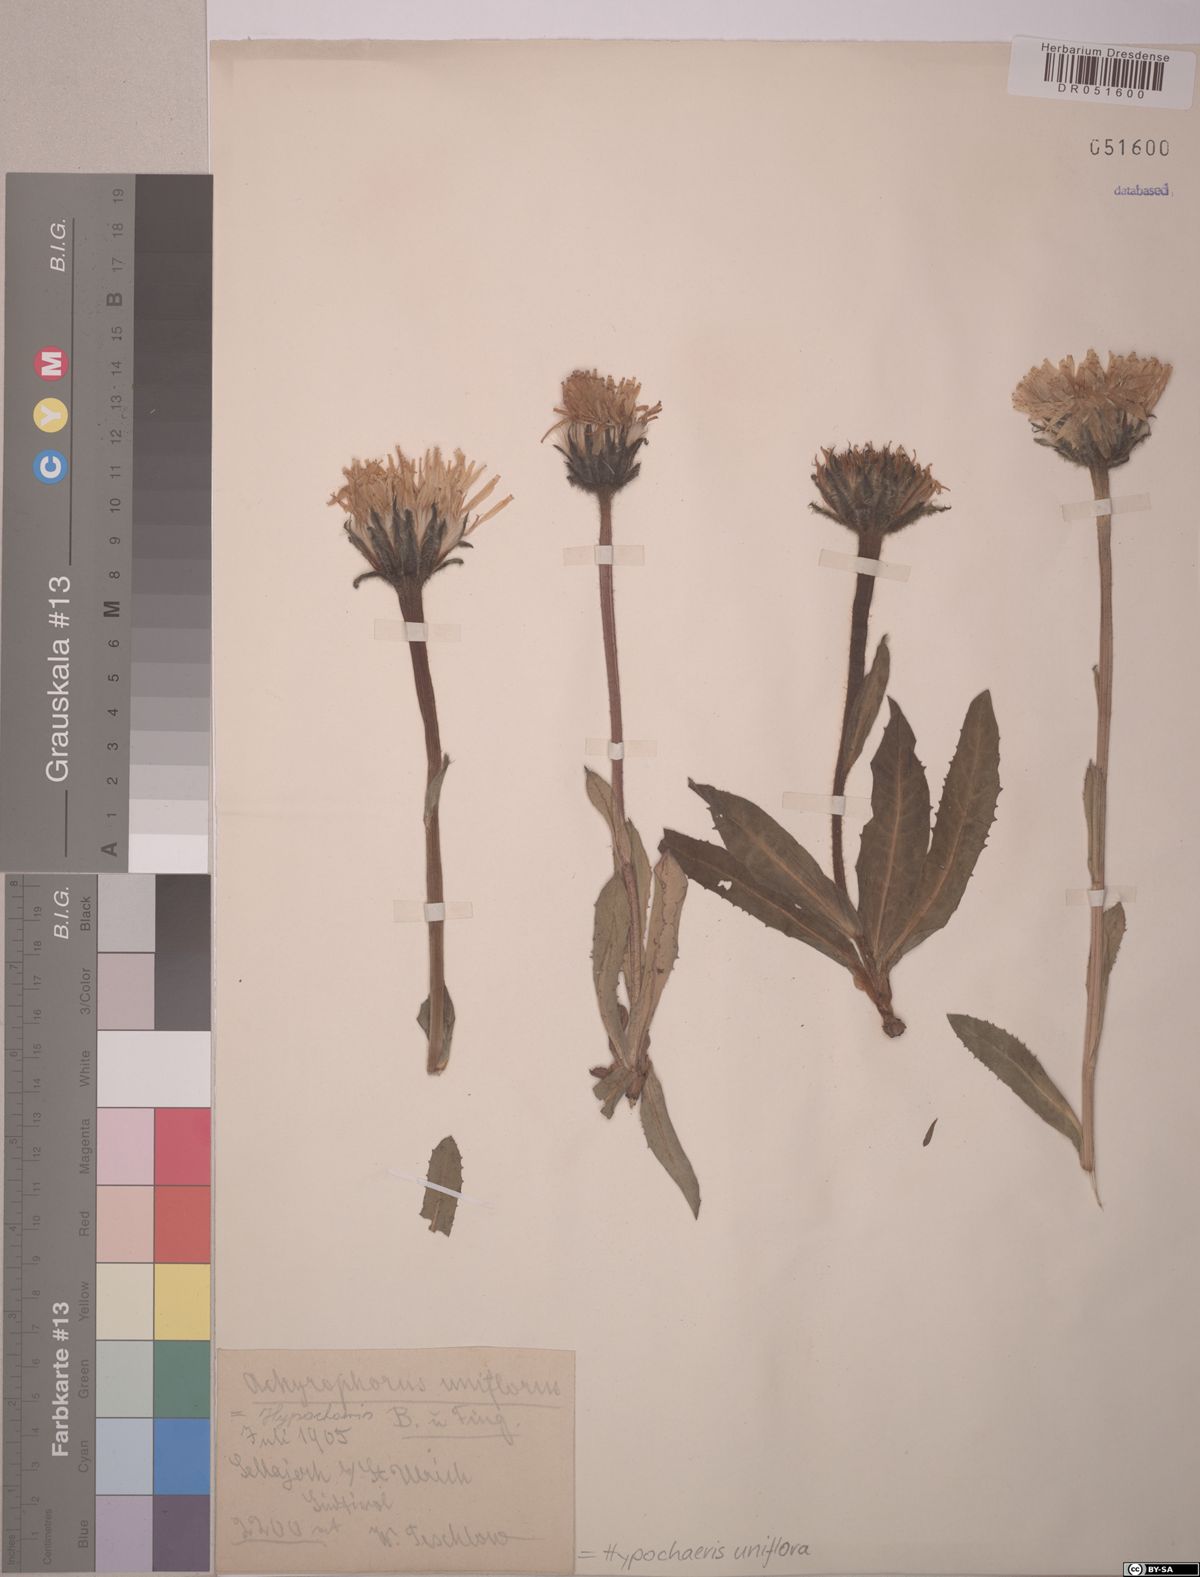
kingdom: Plantae
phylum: Tracheophyta
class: Magnoliopsida
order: Asterales
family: Asteraceae
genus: Trommsdorffia
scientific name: Trommsdorffia uniflora
